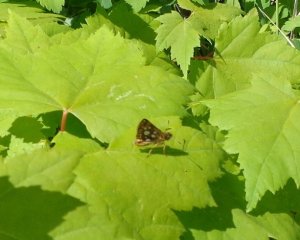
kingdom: Animalia
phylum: Arthropoda
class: Insecta
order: Lepidoptera
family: Hesperiidae
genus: Carterocephalus
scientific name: Carterocephalus palaemon
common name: Chequered Skipper
